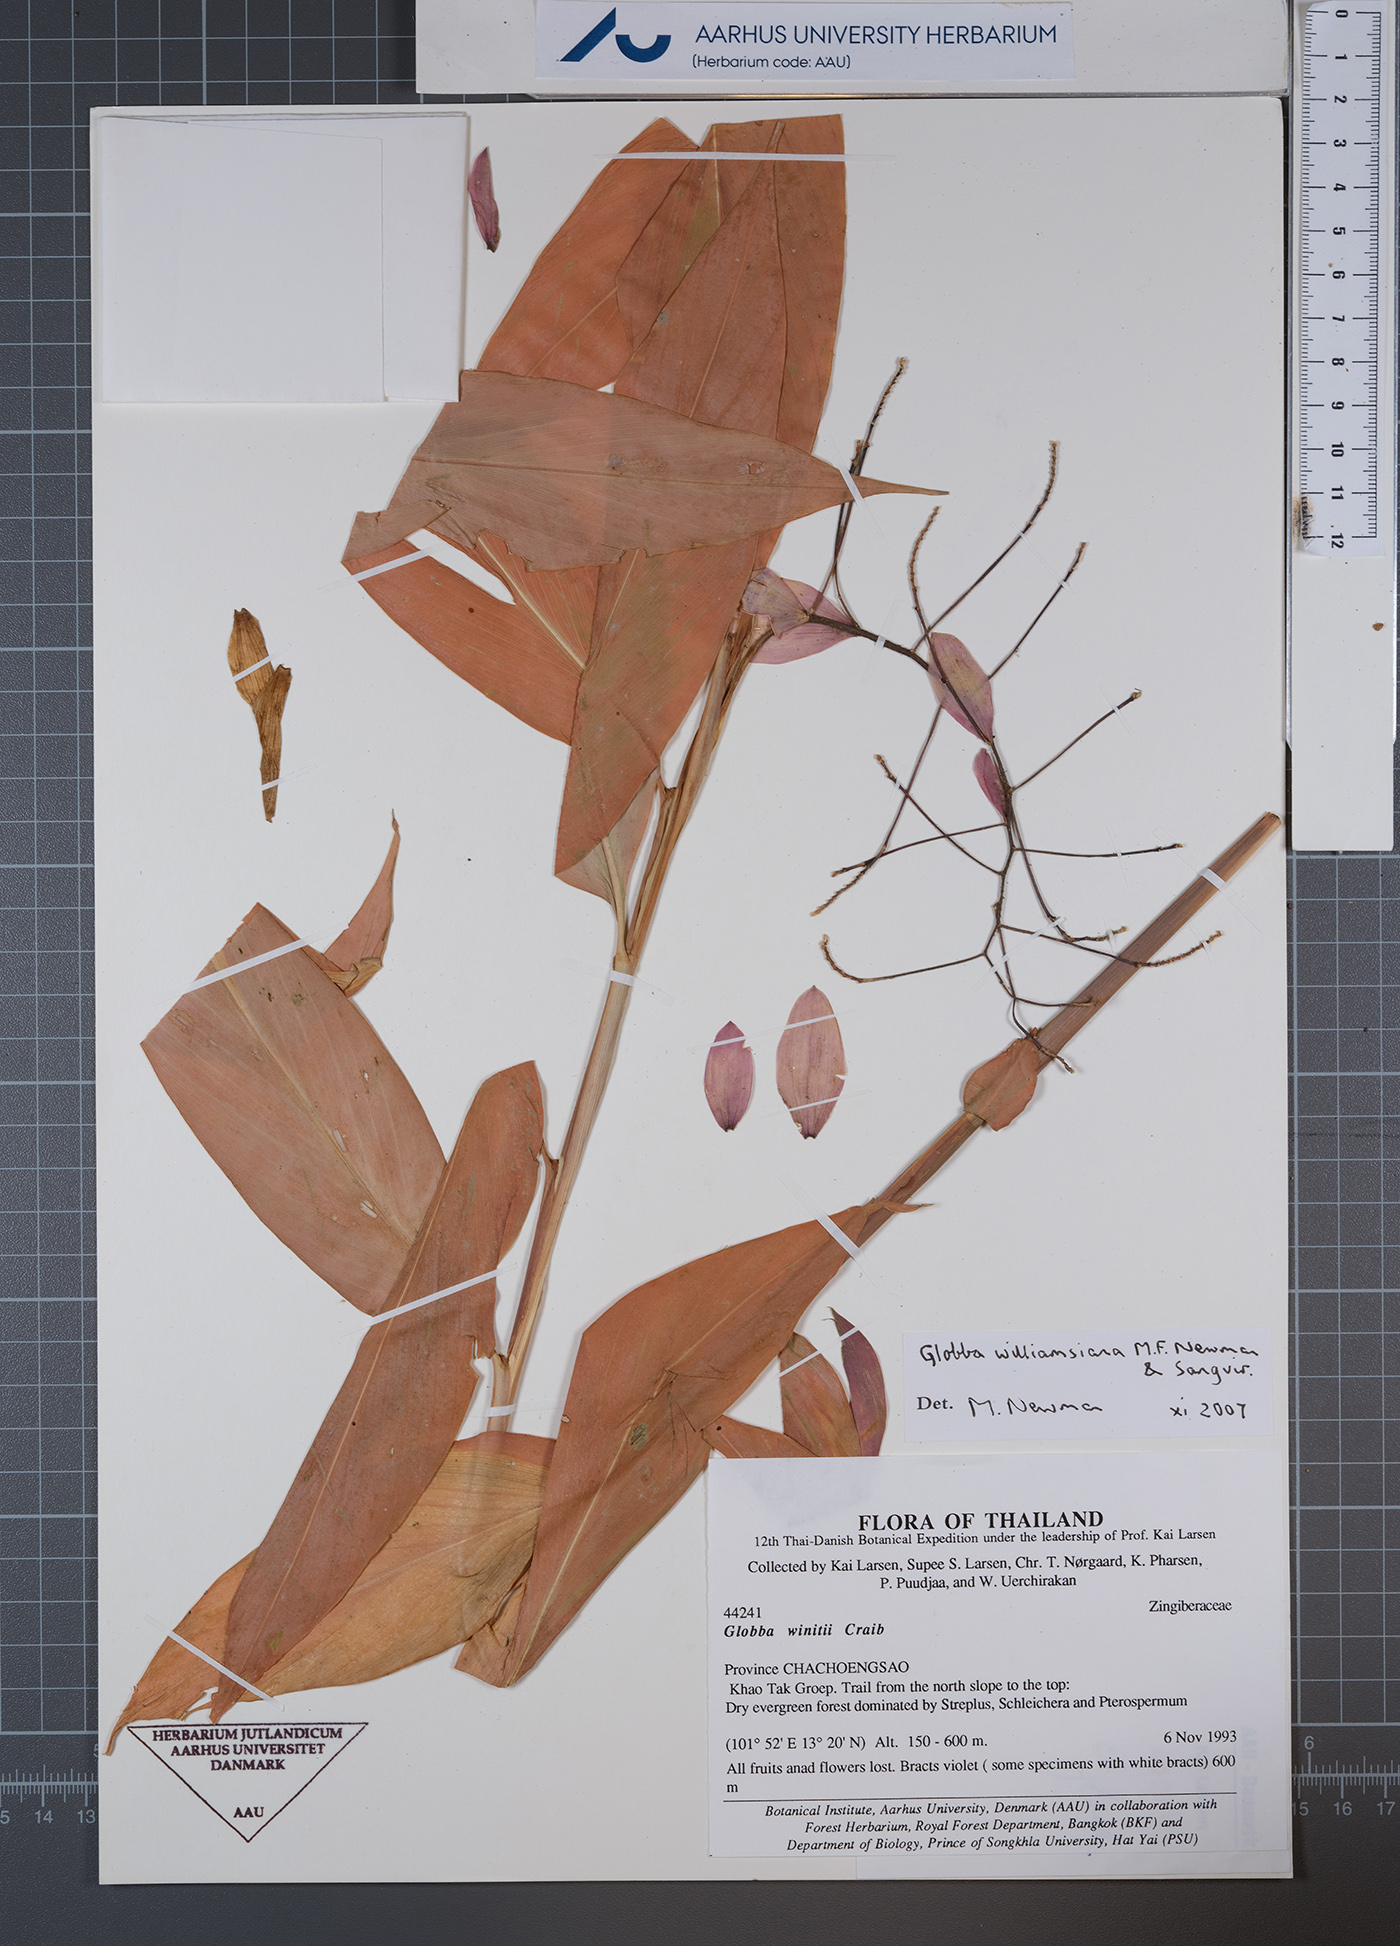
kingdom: Plantae
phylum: Tracheophyta
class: Liliopsida
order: Zingiberales
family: Zingiberaceae
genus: Globba
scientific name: Globba williamsiana
